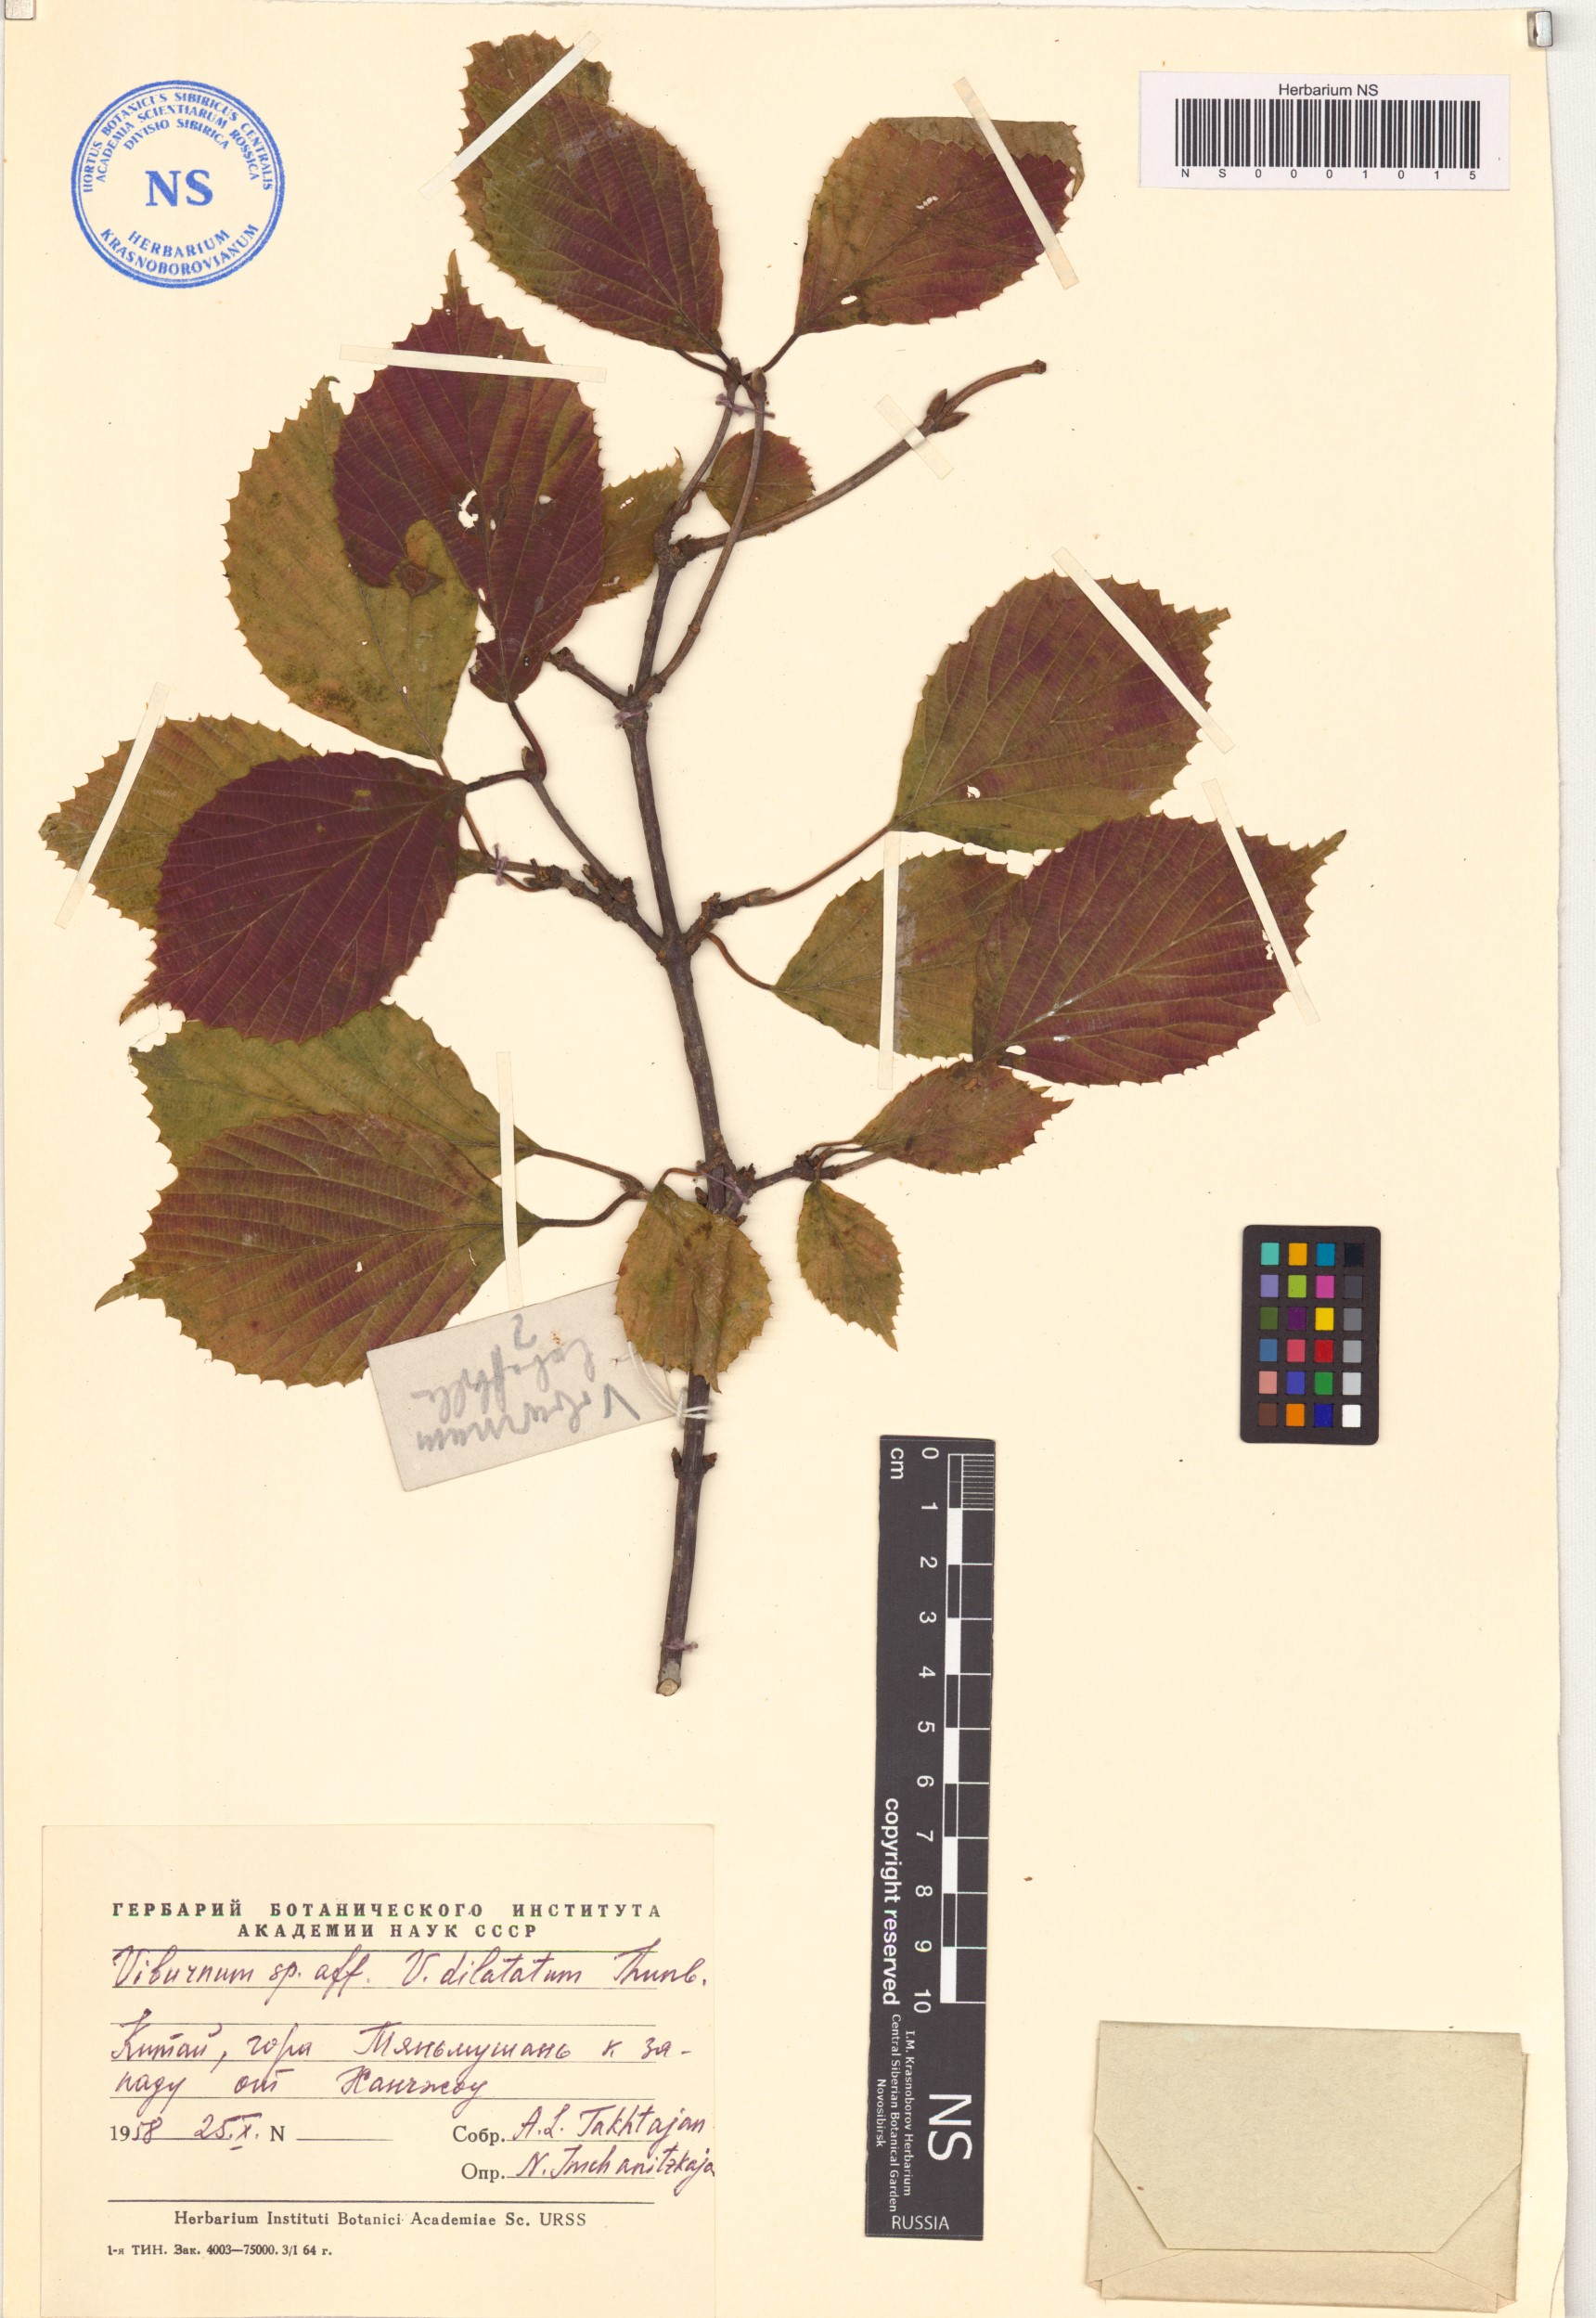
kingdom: Plantae
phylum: Tracheophyta
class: Magnoliopsida
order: Dipsacales
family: Viburnaceae
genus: Viburnum
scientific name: Viburnum dilatatum
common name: Linden arrowwood
